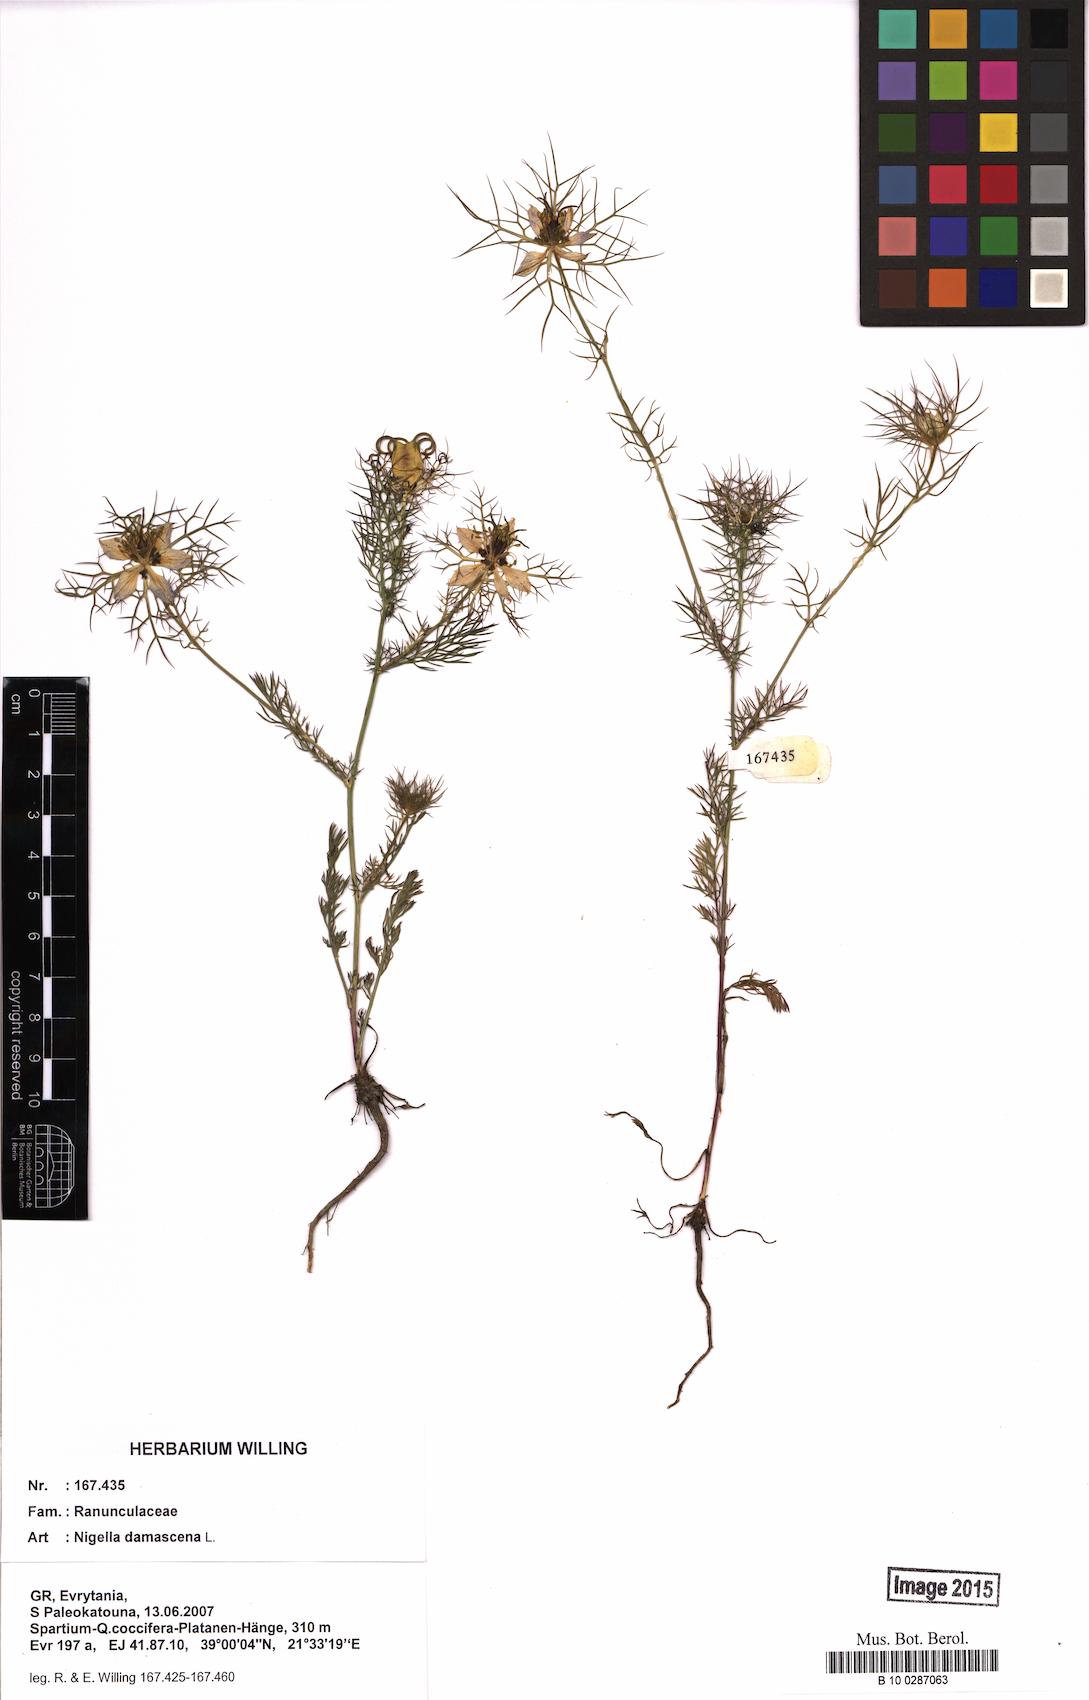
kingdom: Plantae
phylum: Tracheophyta
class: Magnoliopsida
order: Ranunculales
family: Ranunculaceae
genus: Nigella
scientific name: Nigella damascena
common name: Love-in-a-mist
